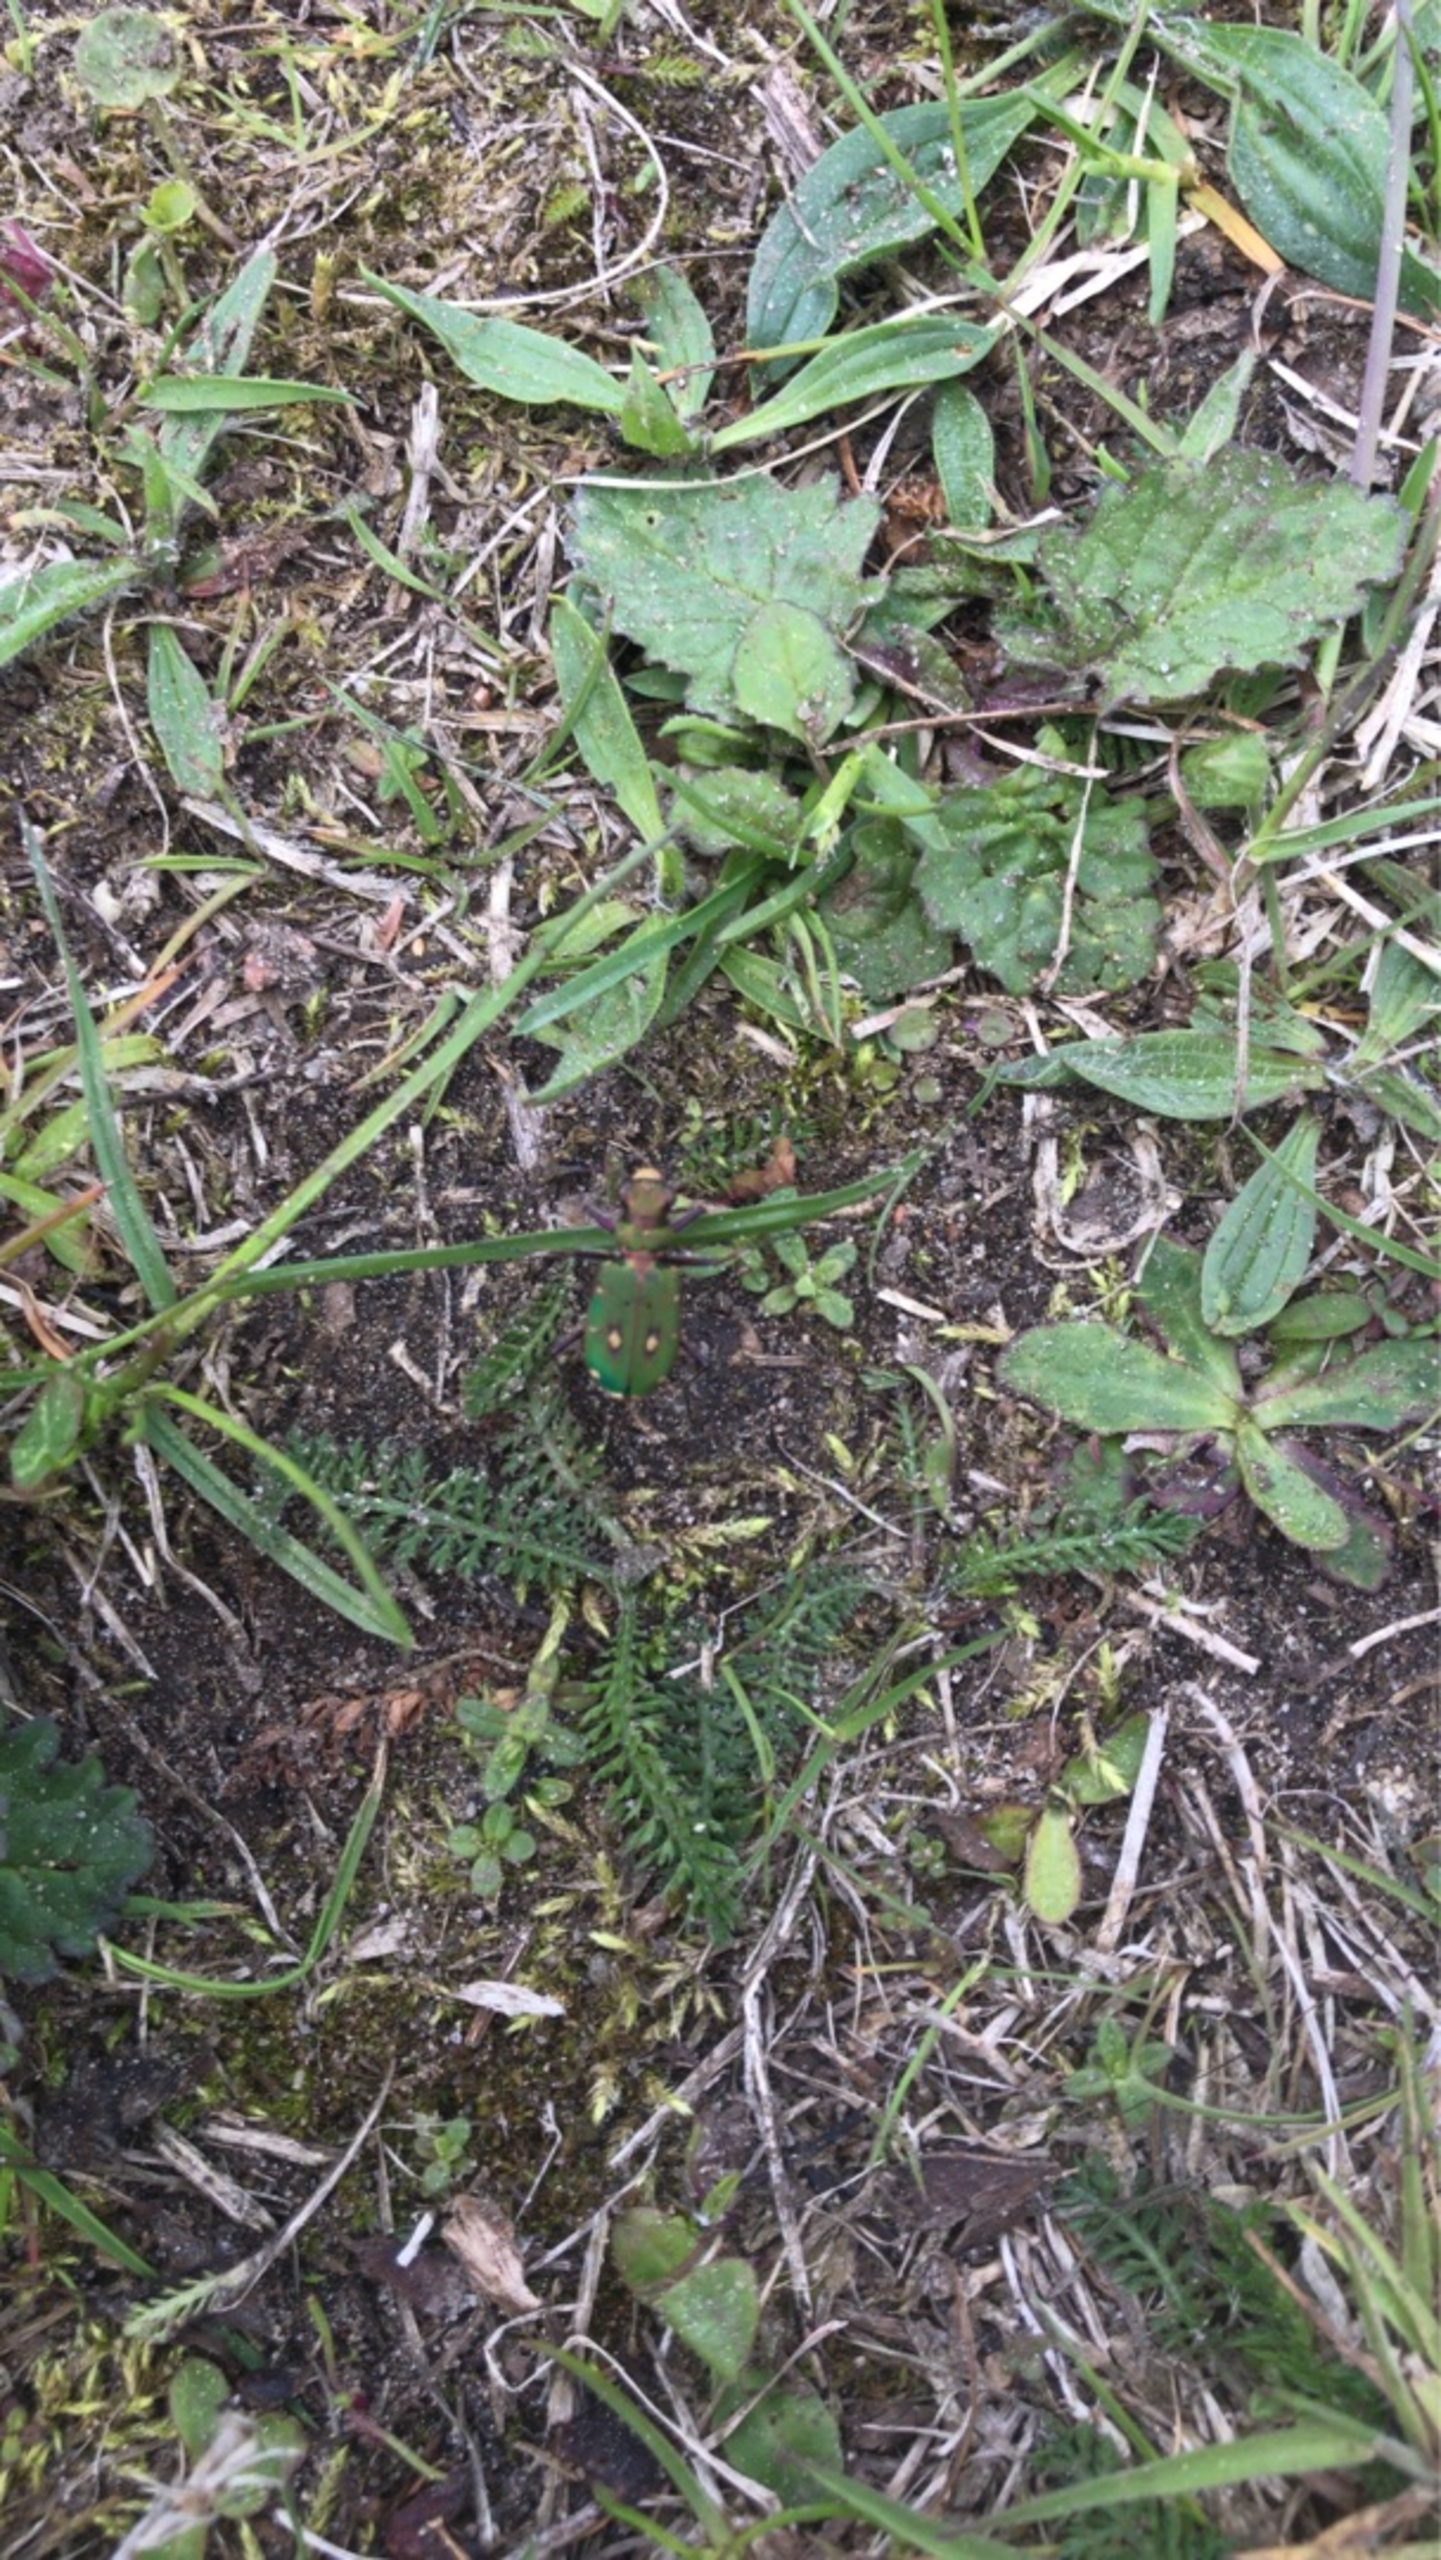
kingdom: Animalia
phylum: Arthropoda
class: Insecta
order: Coleoptera
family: Carabidae
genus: Cicindela
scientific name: Cicindela campestris
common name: Grøn sandspringer
